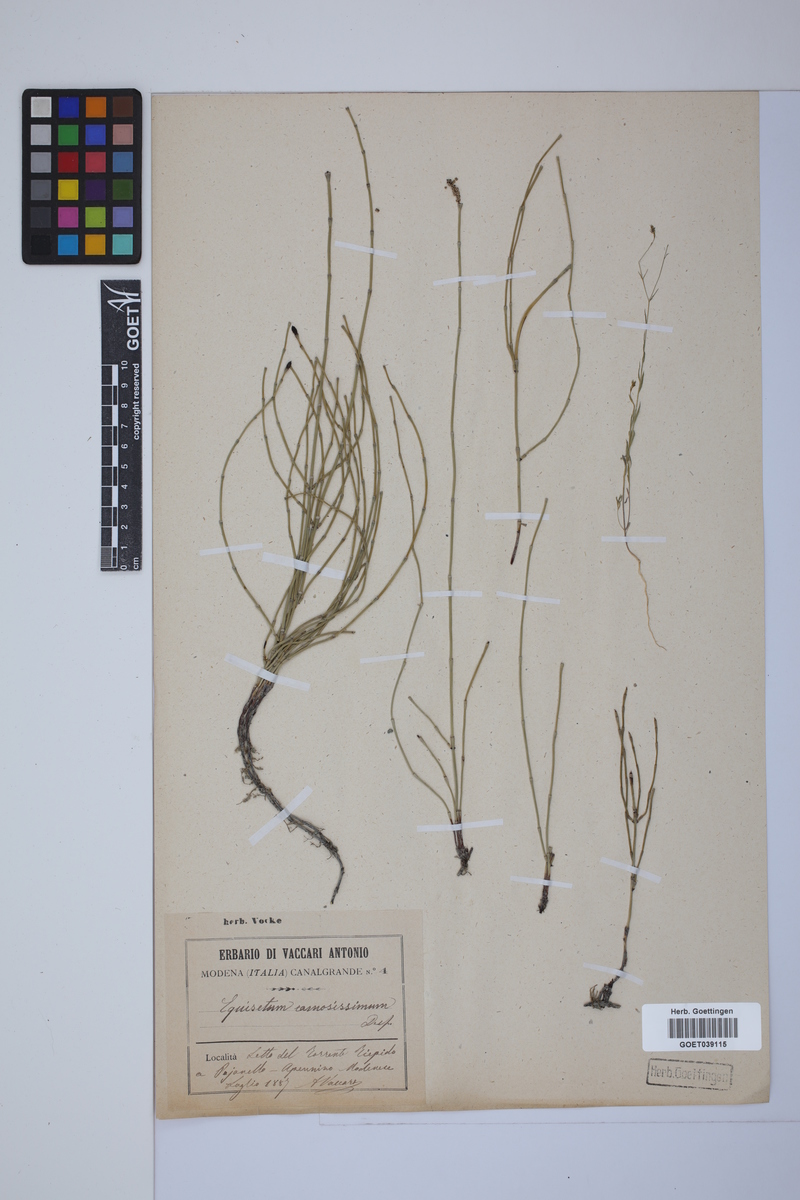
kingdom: Plantae
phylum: Tracheophyta
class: Polypodiopsida
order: Equisetales
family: Equisetaceae
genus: Equisetum
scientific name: Equisetum giganteum
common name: Giant horsetail
